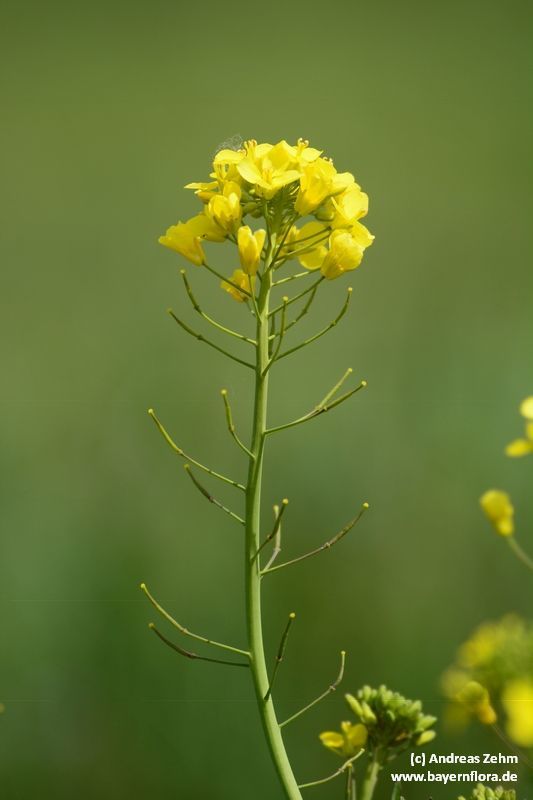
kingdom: Plantae
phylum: Tracheophyta
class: Magnoliopsida
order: Brassicales
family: Brassicaceae
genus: Brassica
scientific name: Brassica napus
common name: Rape
